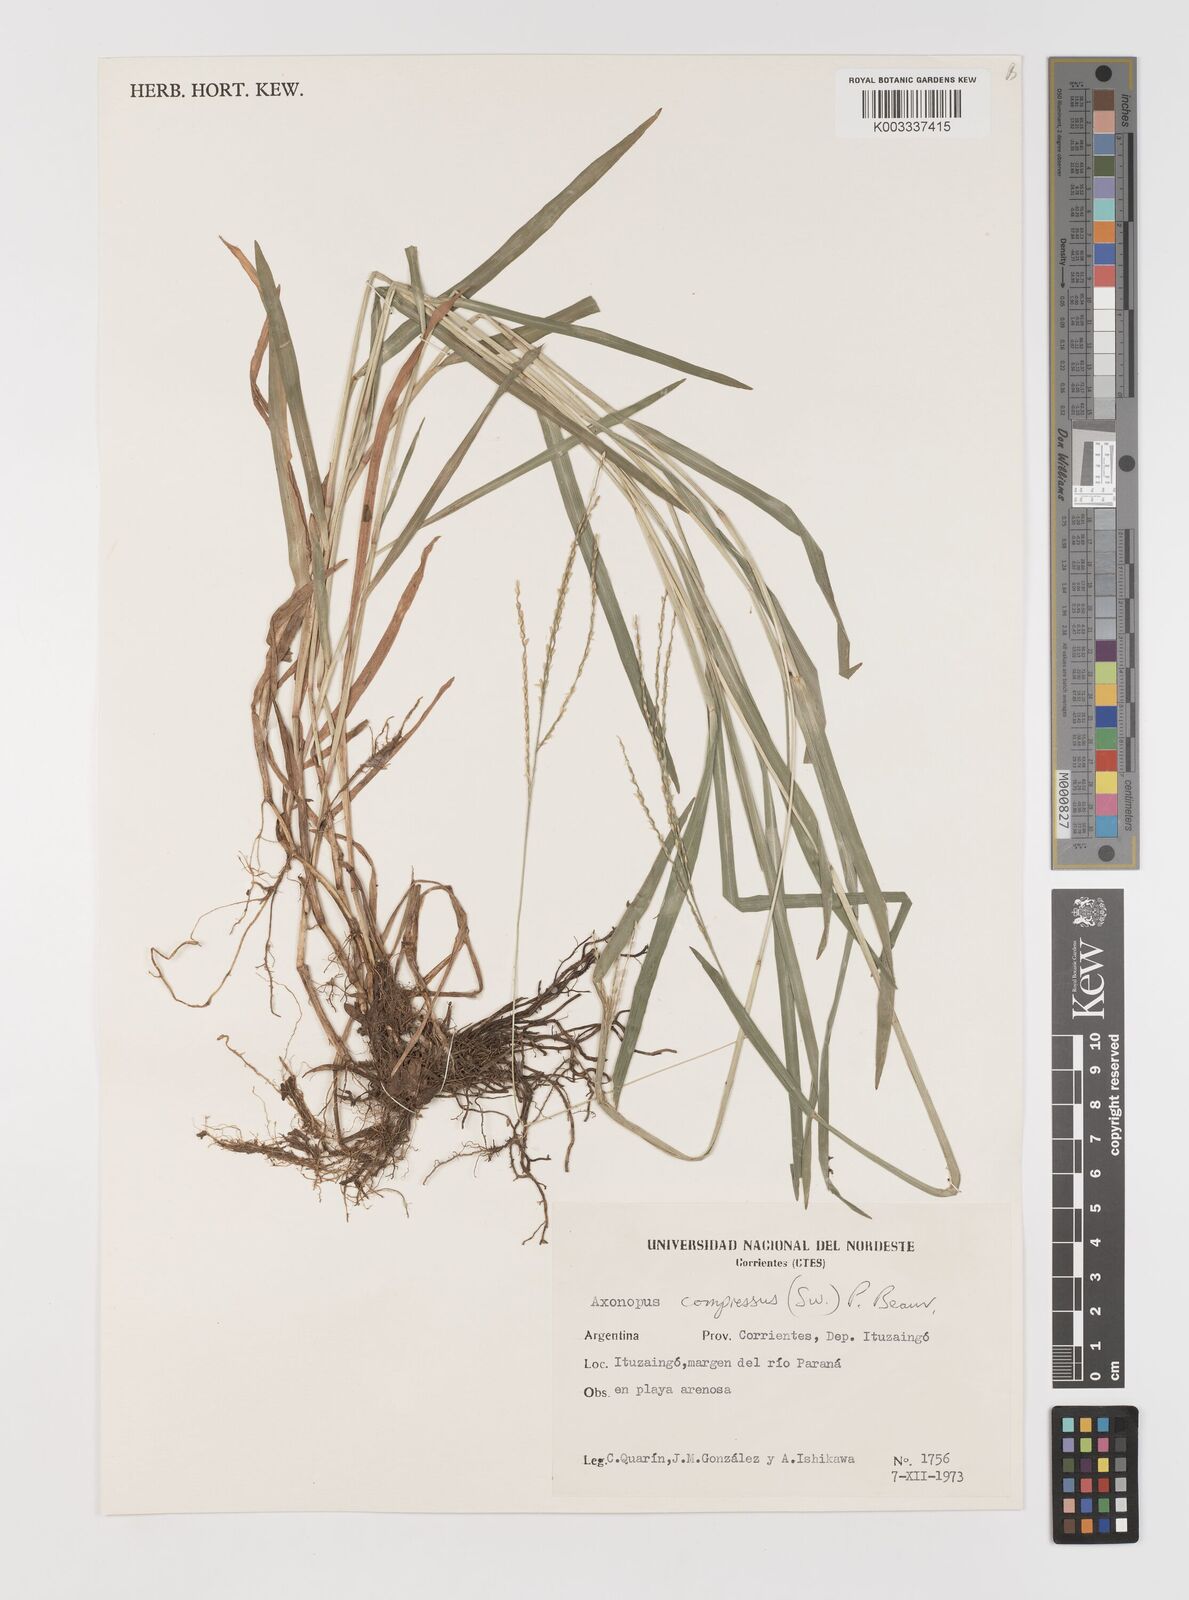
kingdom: Plantae
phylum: Tracheophyta
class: Liliopsida
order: Poales
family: Poaceae
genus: Axonopus
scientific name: Axonopus compressus
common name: American carpet grass
